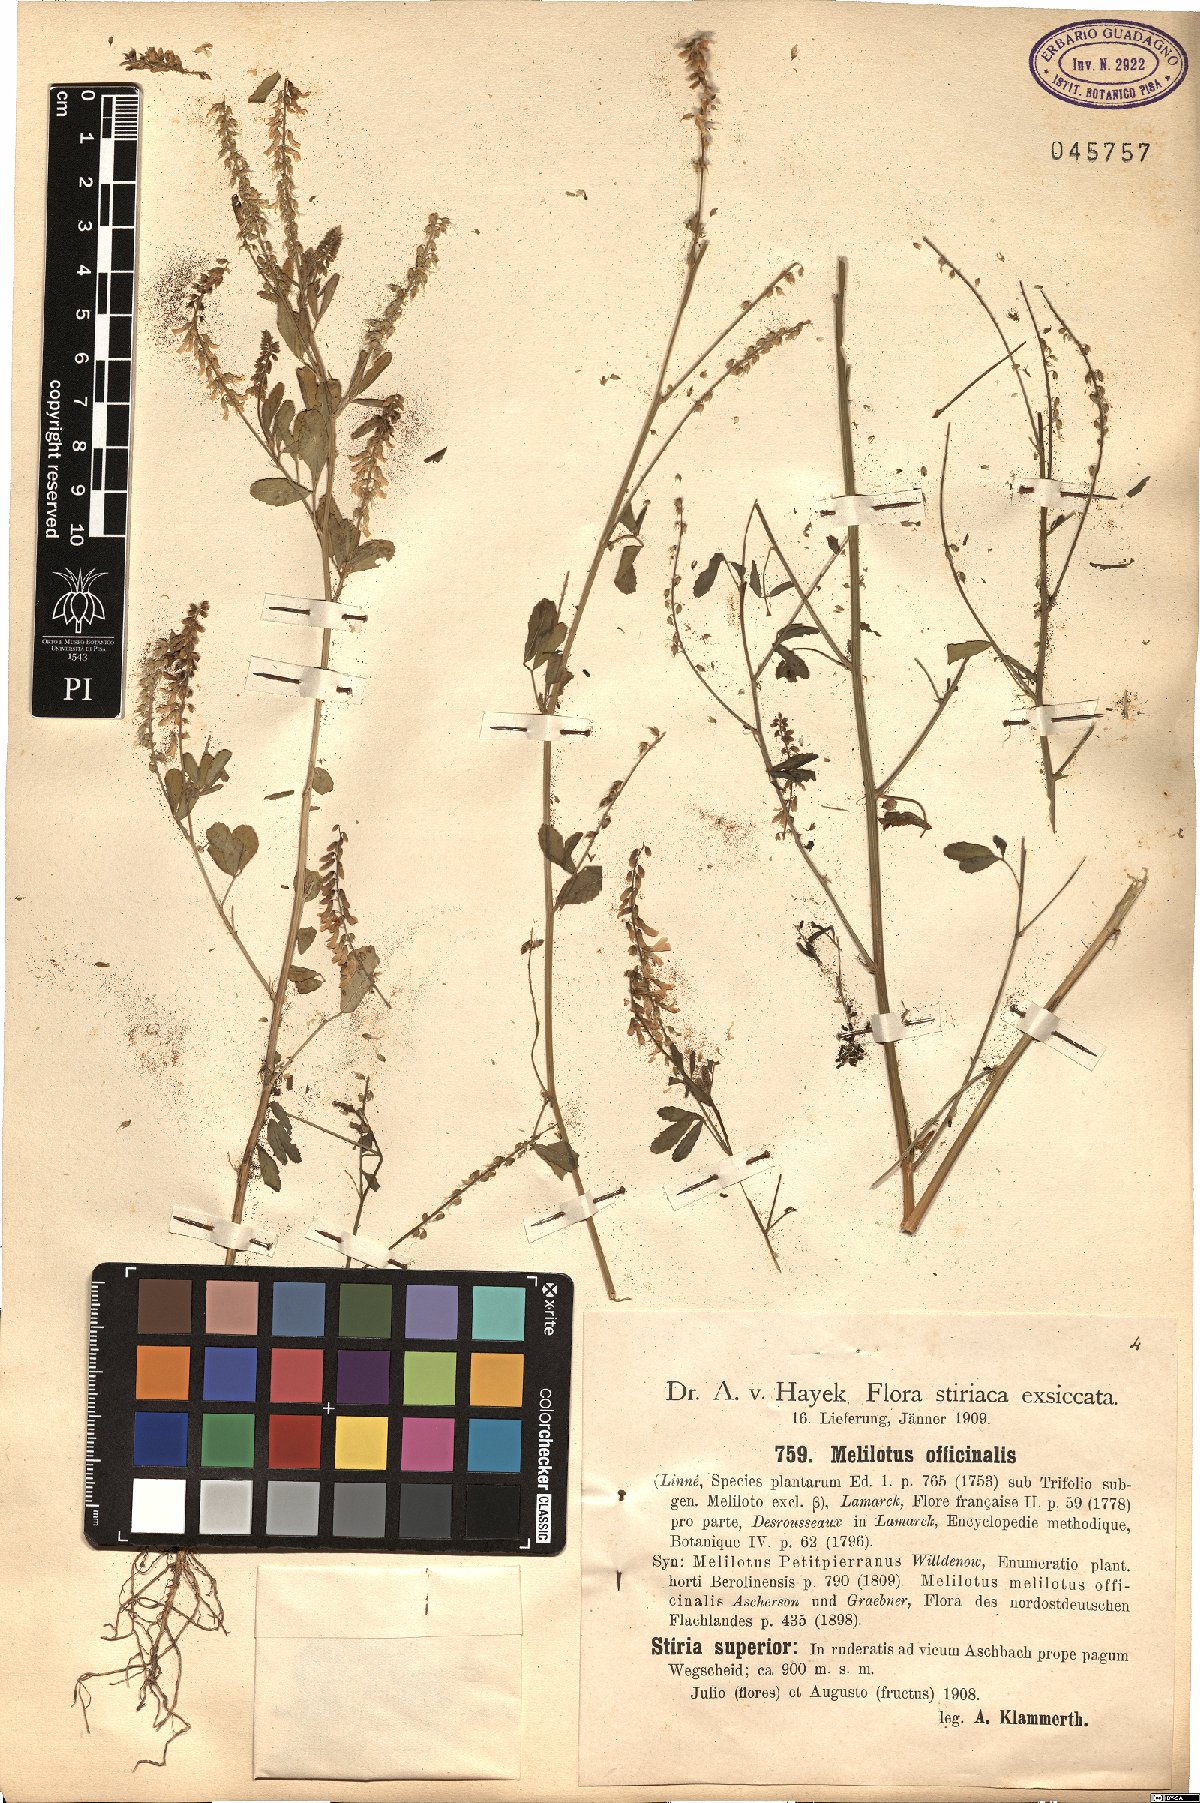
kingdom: Plantae
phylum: Tracheophyta
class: Magnoliopsida
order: Fabales
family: Fabaceae
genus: Melilotus
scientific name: Melilotus officinalis
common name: Sweetclover
